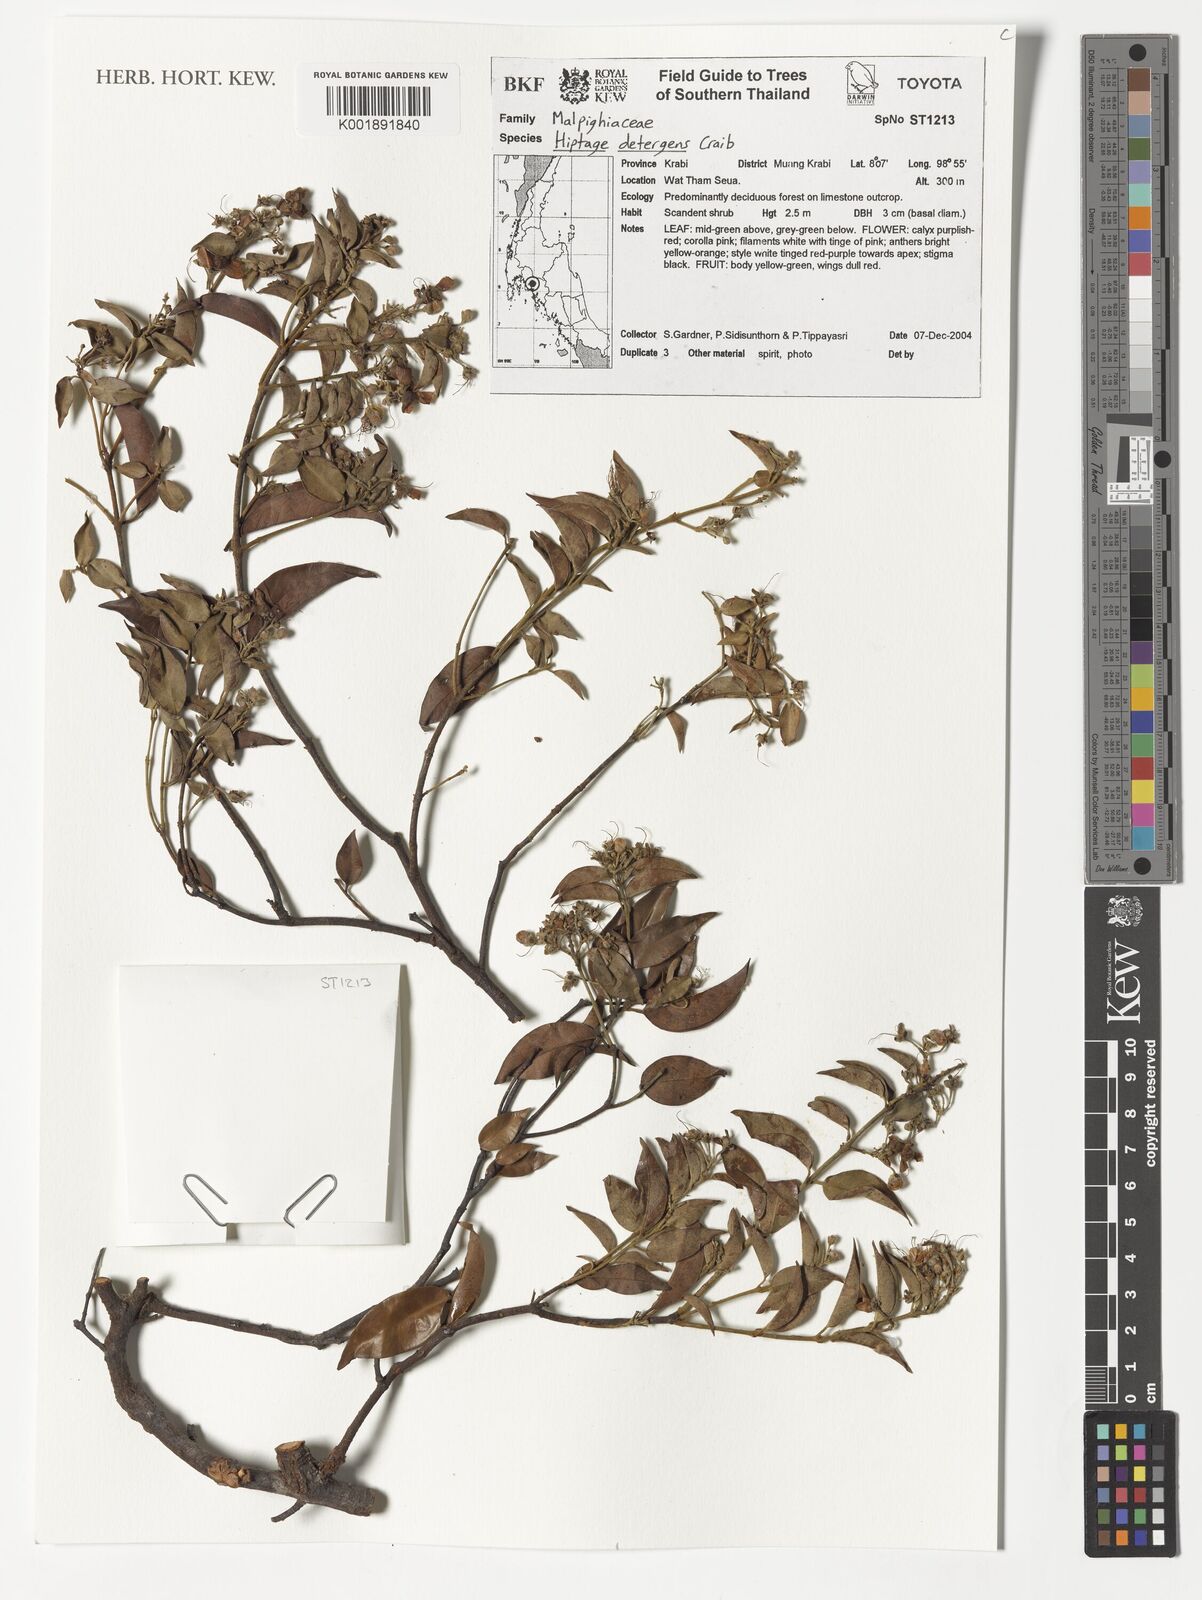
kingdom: Plantae
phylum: Tracheophyta
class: Magnoliopsida
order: Malpighiales
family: Malpighiaceae
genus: Aspidopterys
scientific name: Aspidopterys
